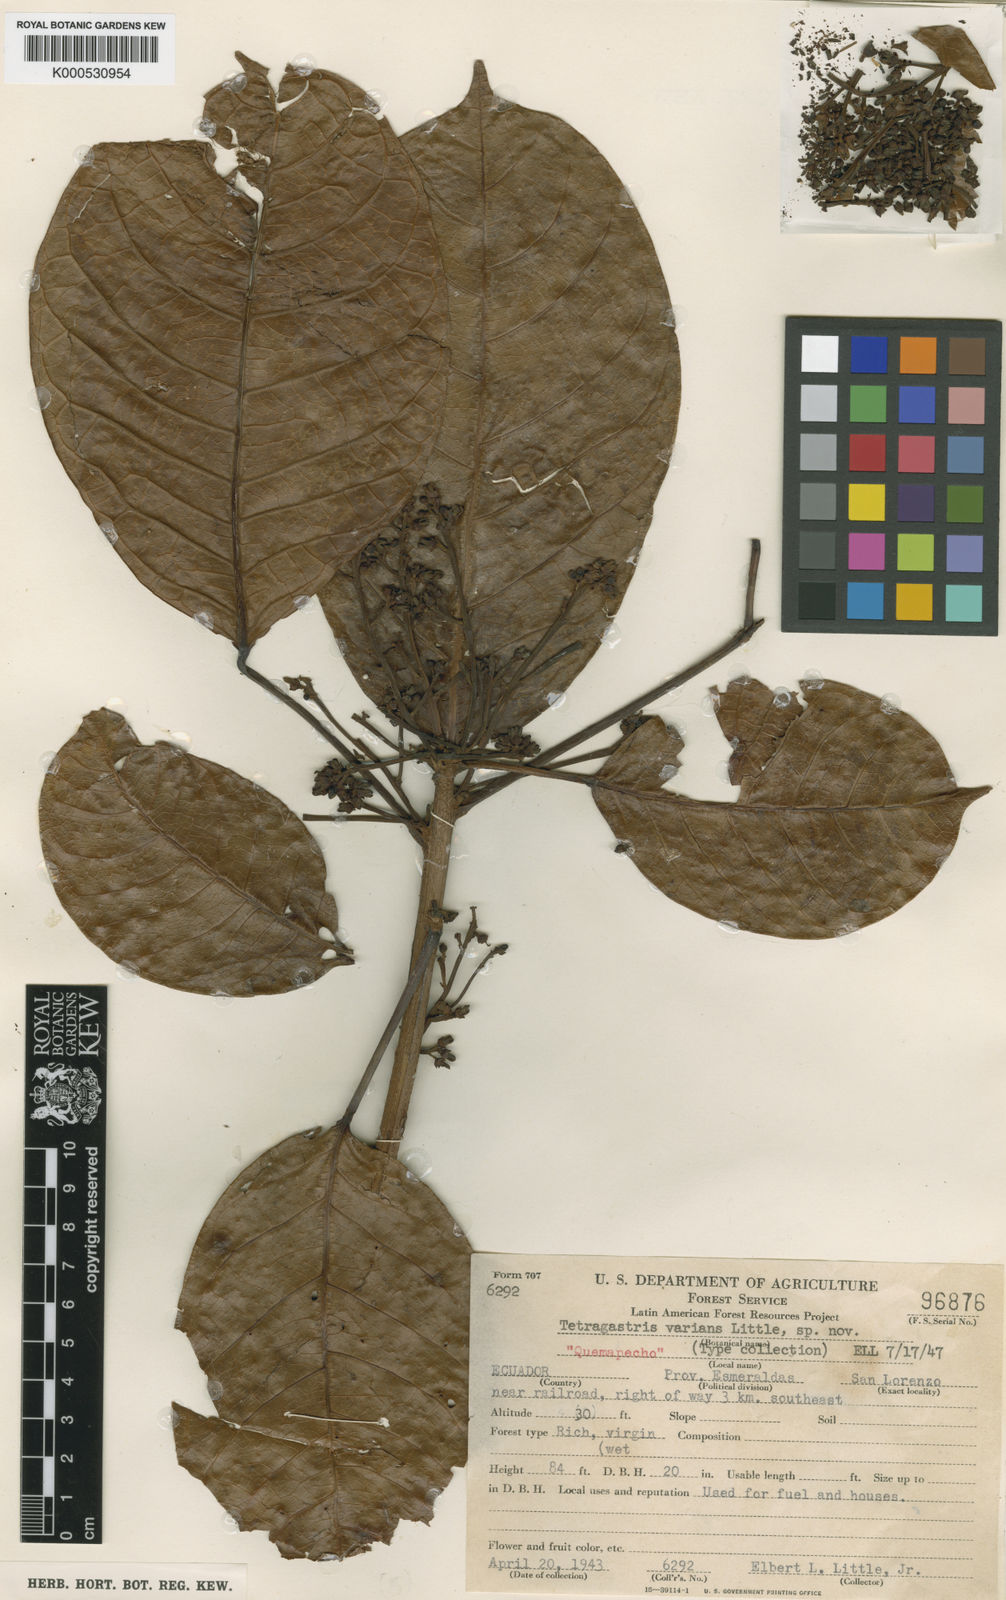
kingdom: Plantae
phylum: Tracheophyta
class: Magnoliopsida
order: Sapindales
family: Burseraceae
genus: Tetragastris
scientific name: Tetragastris varians
